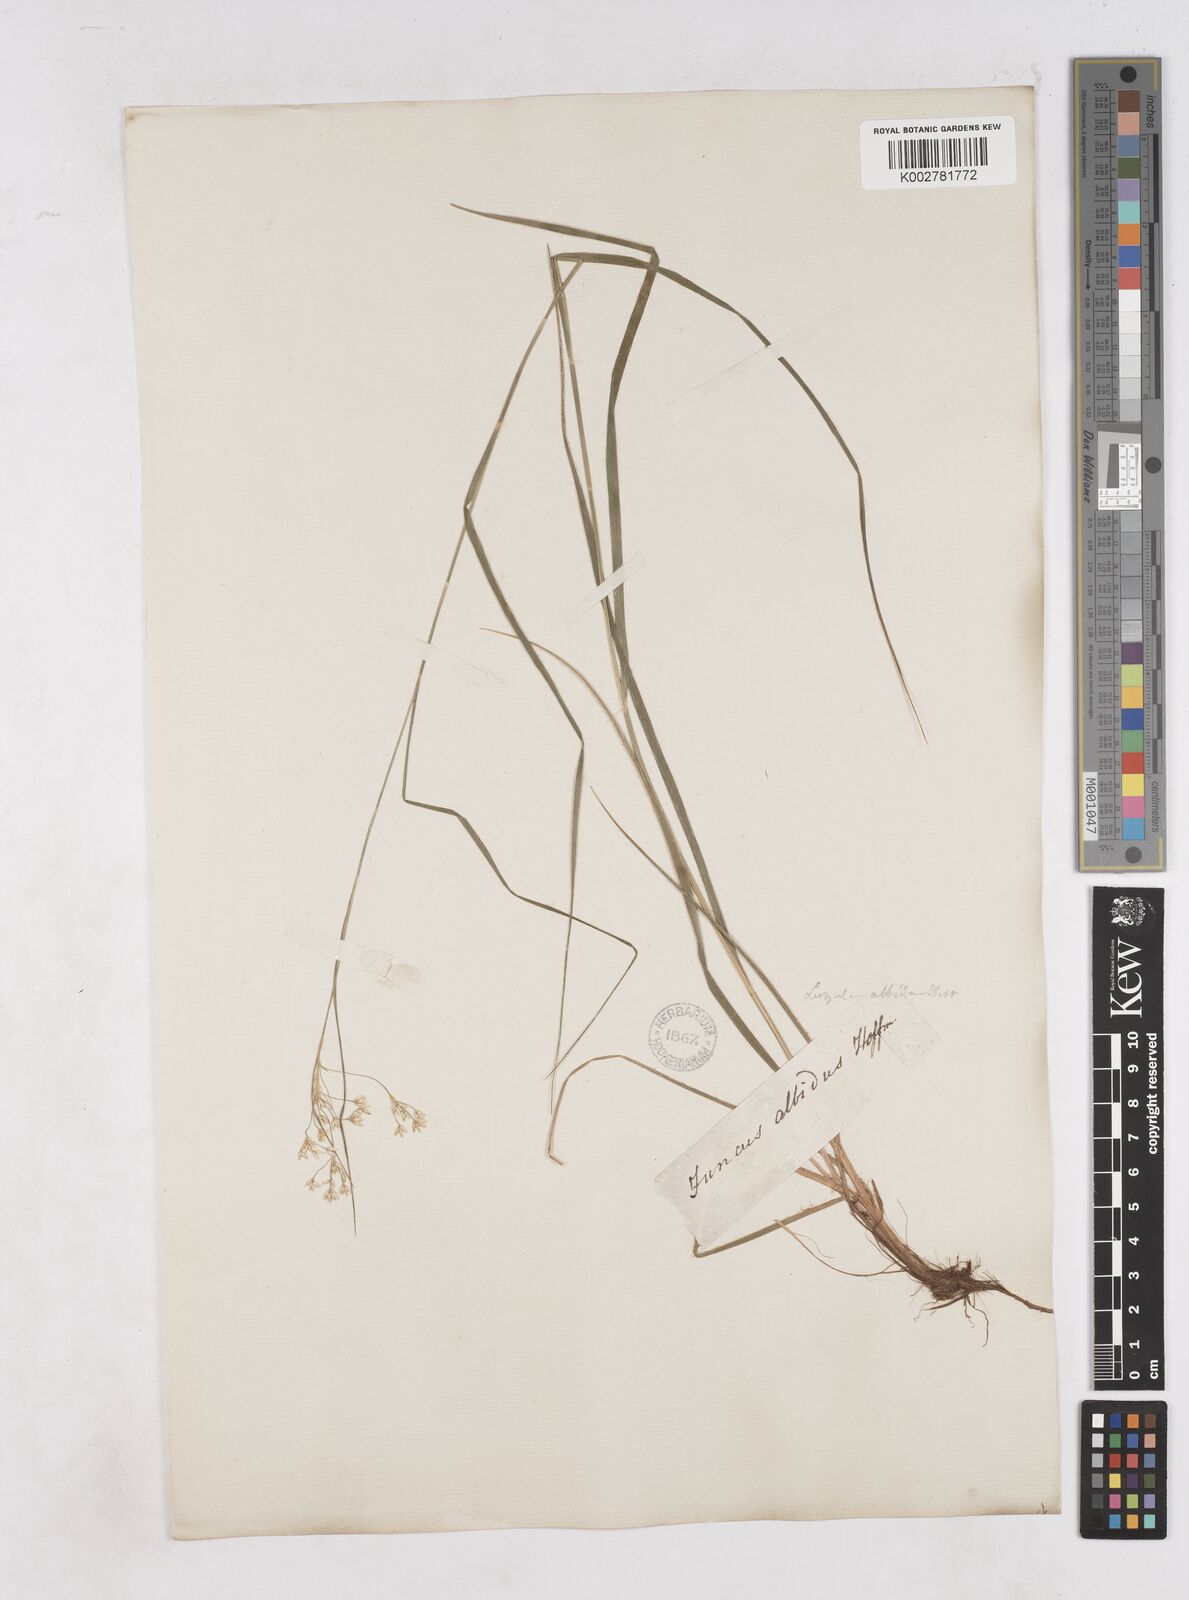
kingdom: Plantae
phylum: Tracheophyta
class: Liliopsida
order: Poales
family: Juncaceae
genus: Luzula
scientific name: Luzula luzuloides
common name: White wood-rush
